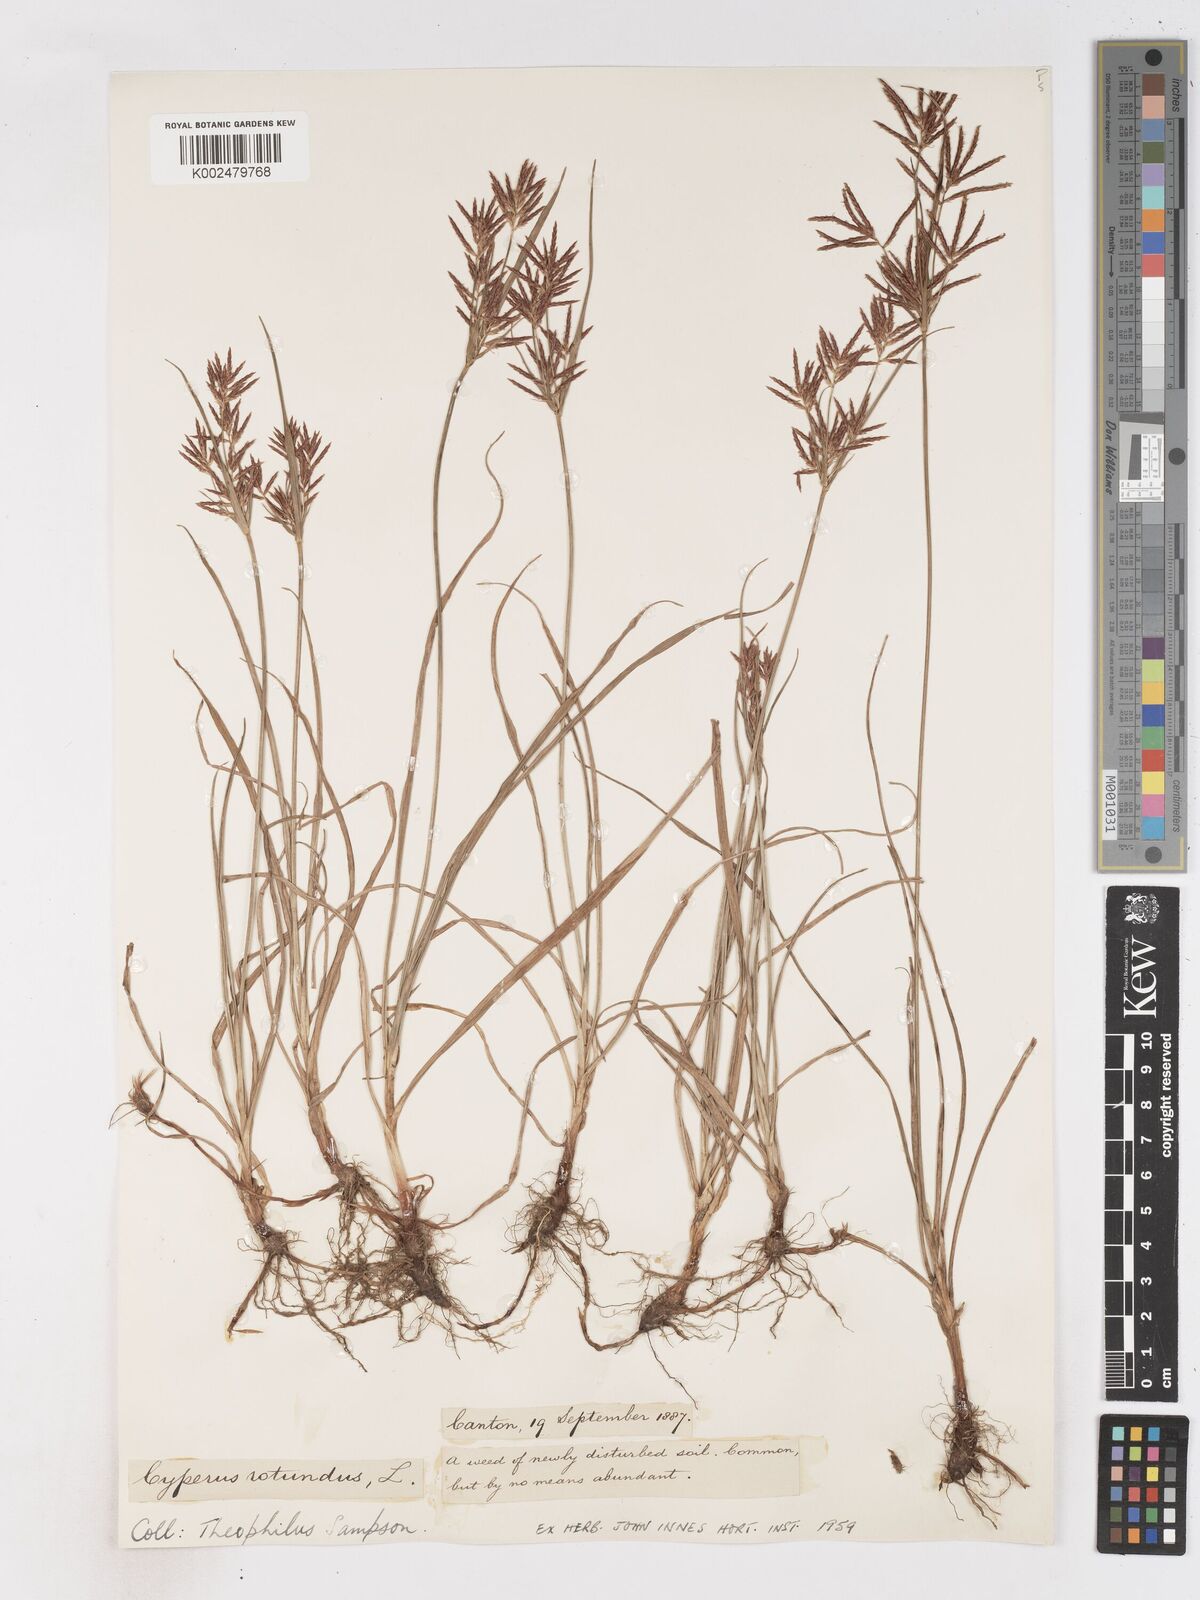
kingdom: Plantae
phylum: Tracheophyta
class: Liliopsida
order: Poales
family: Cyperaceae
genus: Cyperus
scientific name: Cyperus rotundus
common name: Nutgrass
